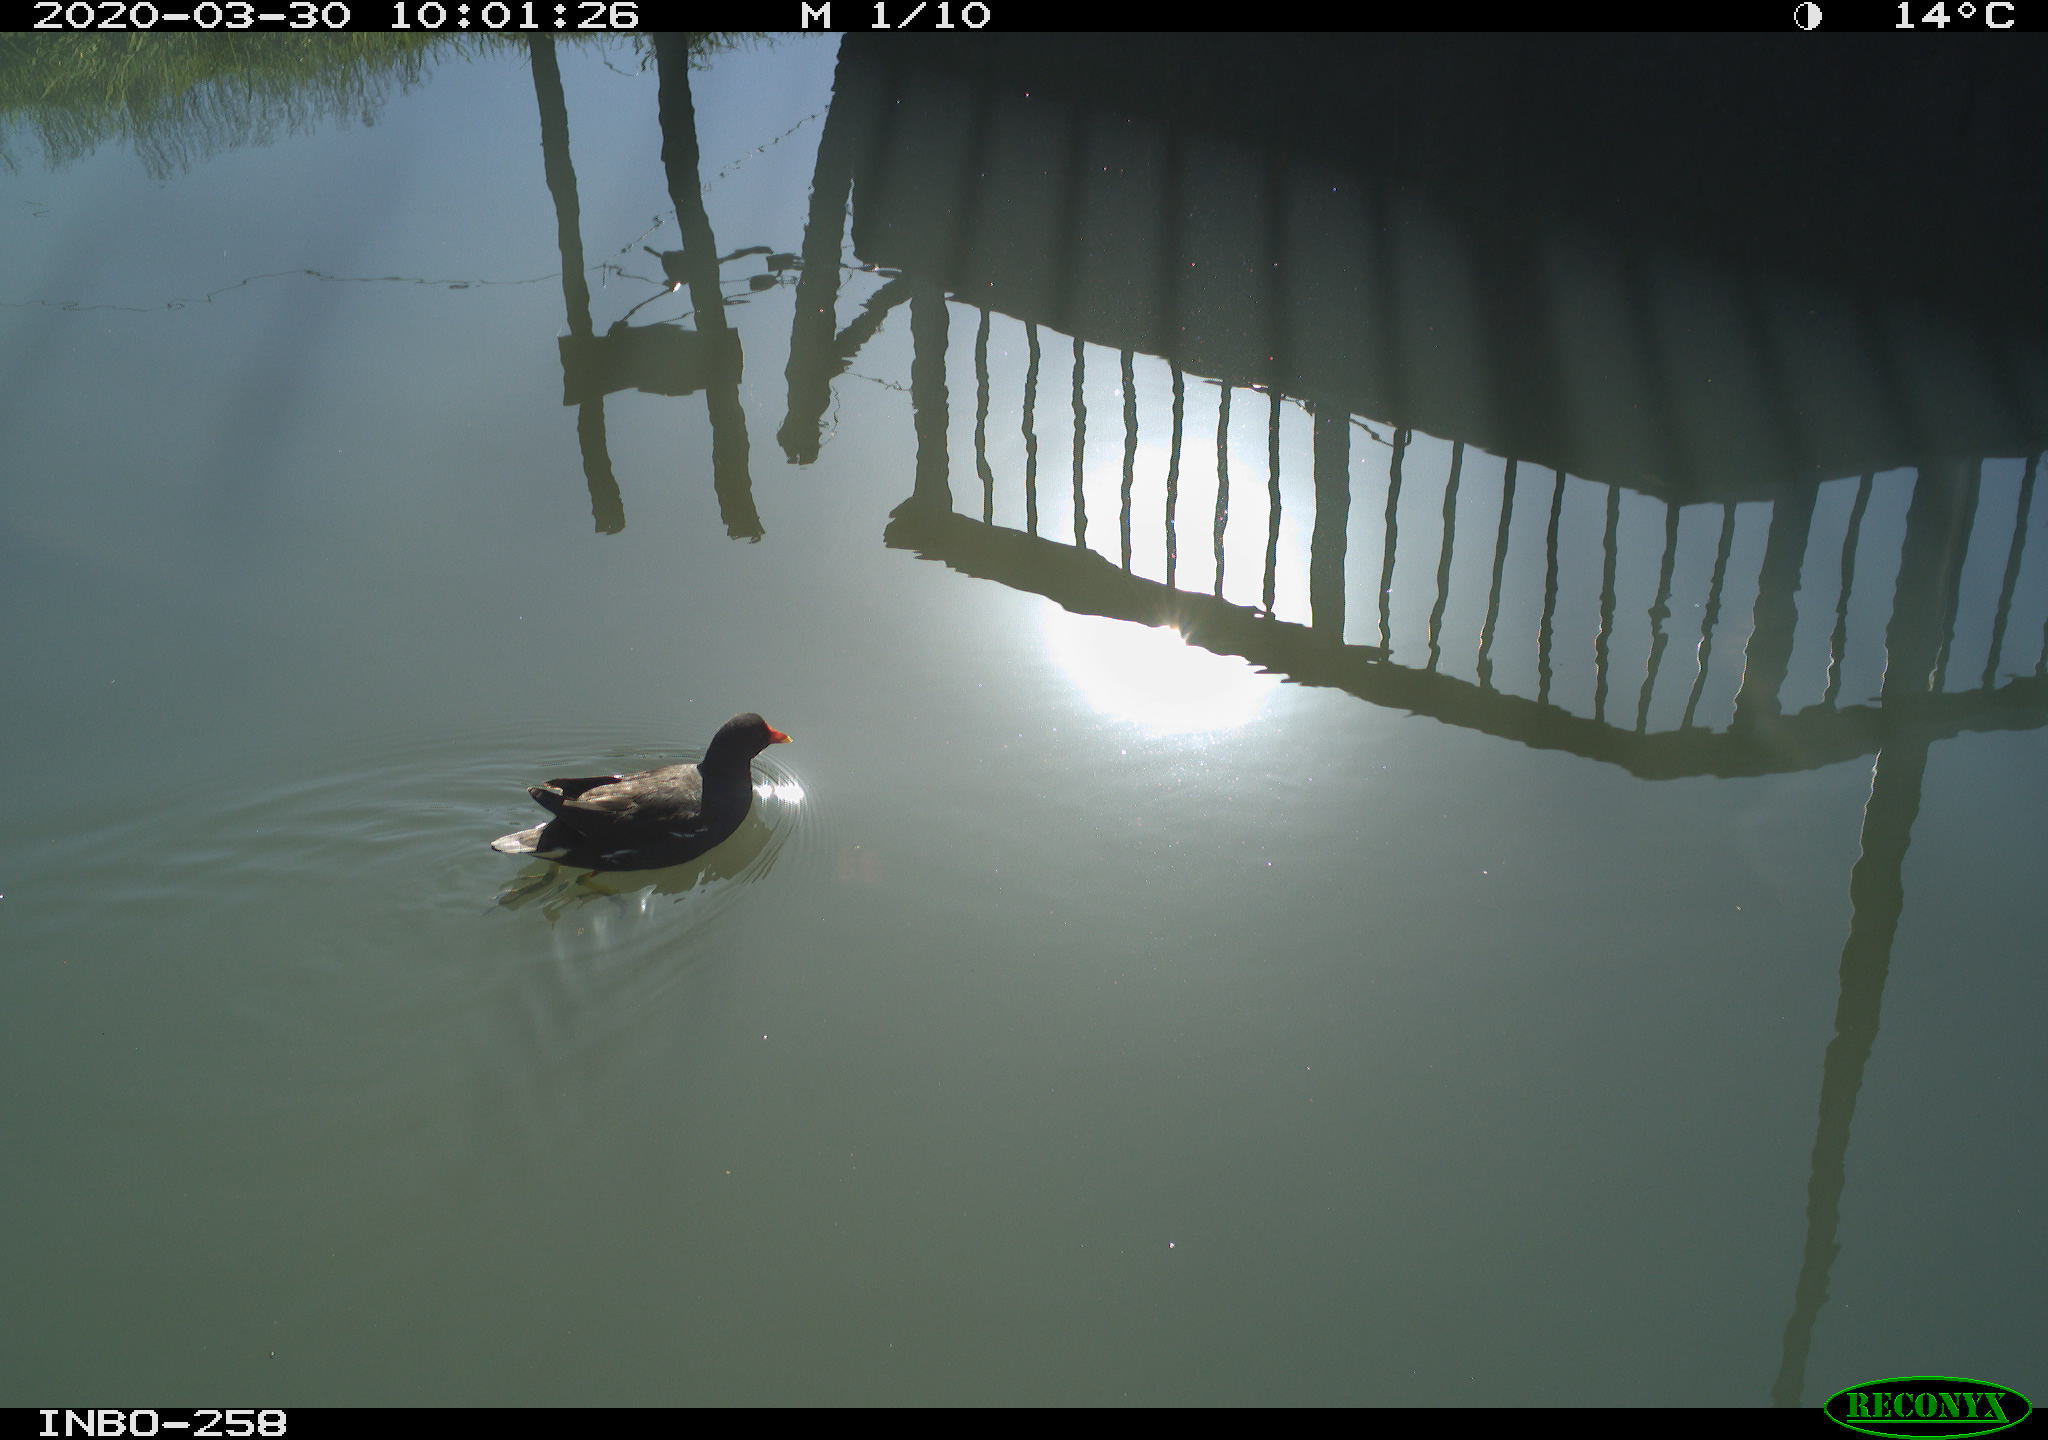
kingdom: Animalia
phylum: Chordata
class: Aves
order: Gruiformes
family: Rallidae
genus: Gallinula
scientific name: Gallinula chloropus
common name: Common moorhen
